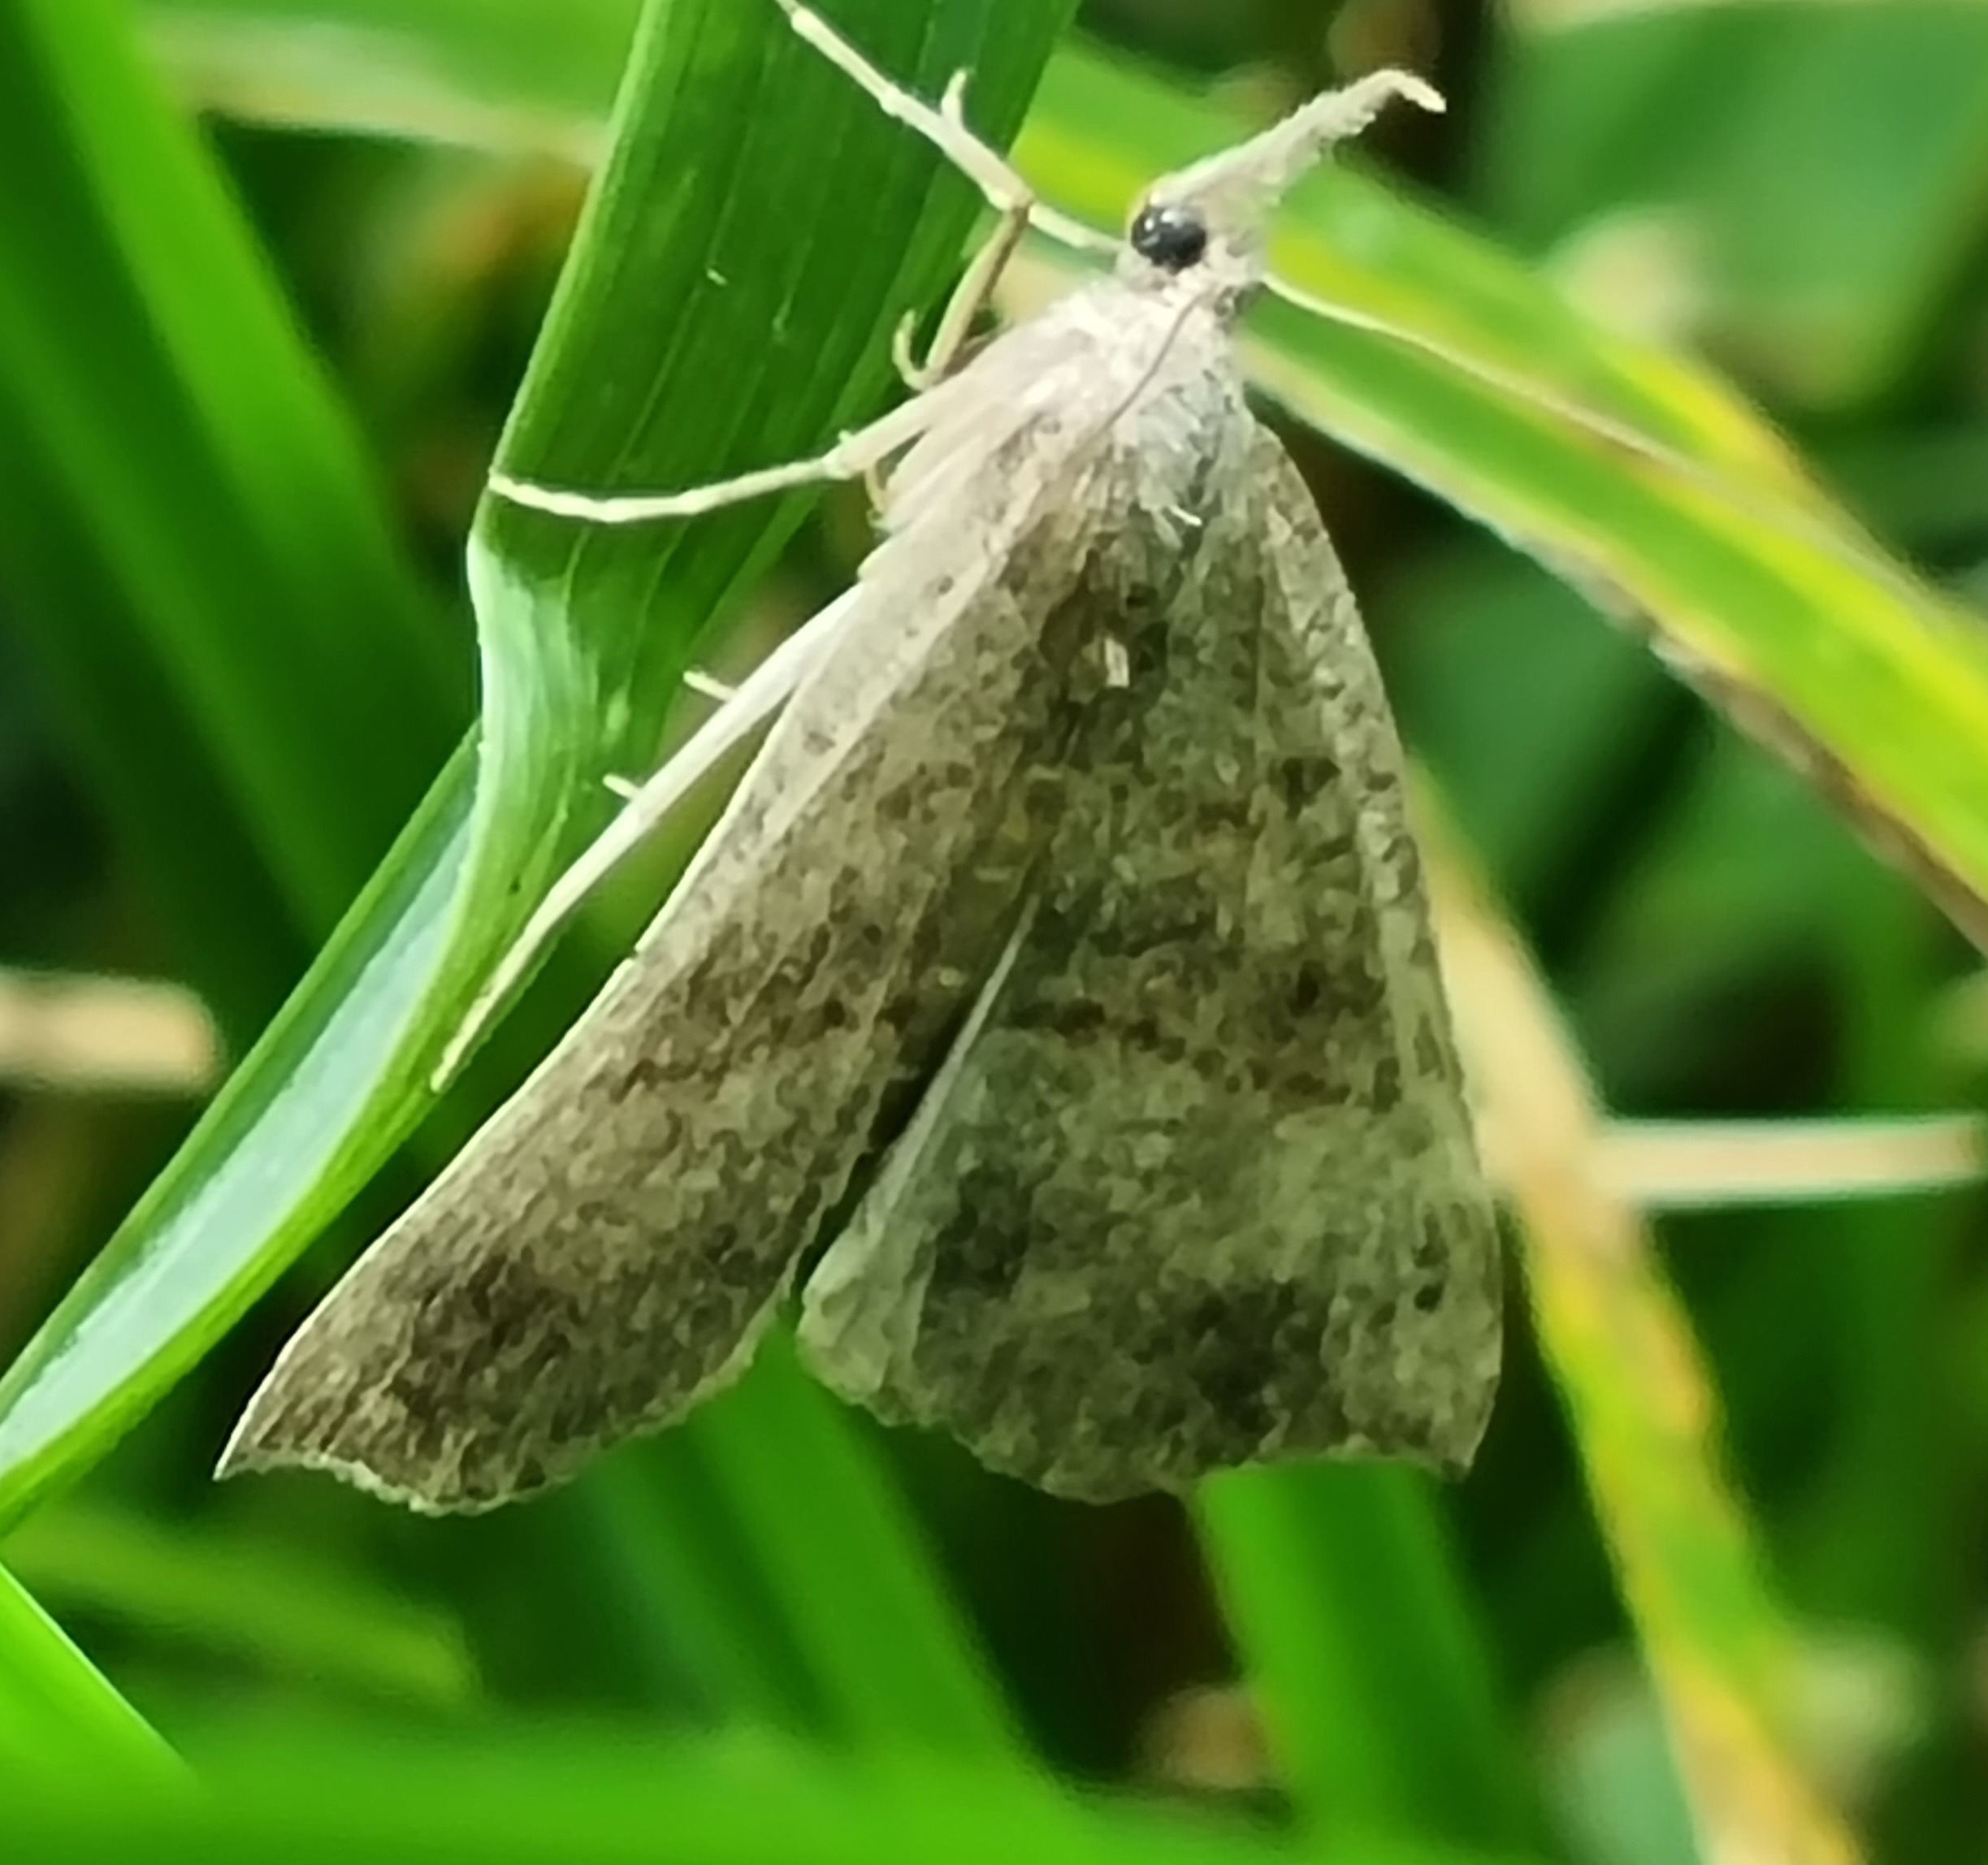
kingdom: Animalia
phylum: Arthropoda
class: Insecta
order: Lepidoptera
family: Erebidae
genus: Hypena
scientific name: Hypena proboscidalis
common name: Snudeugle
